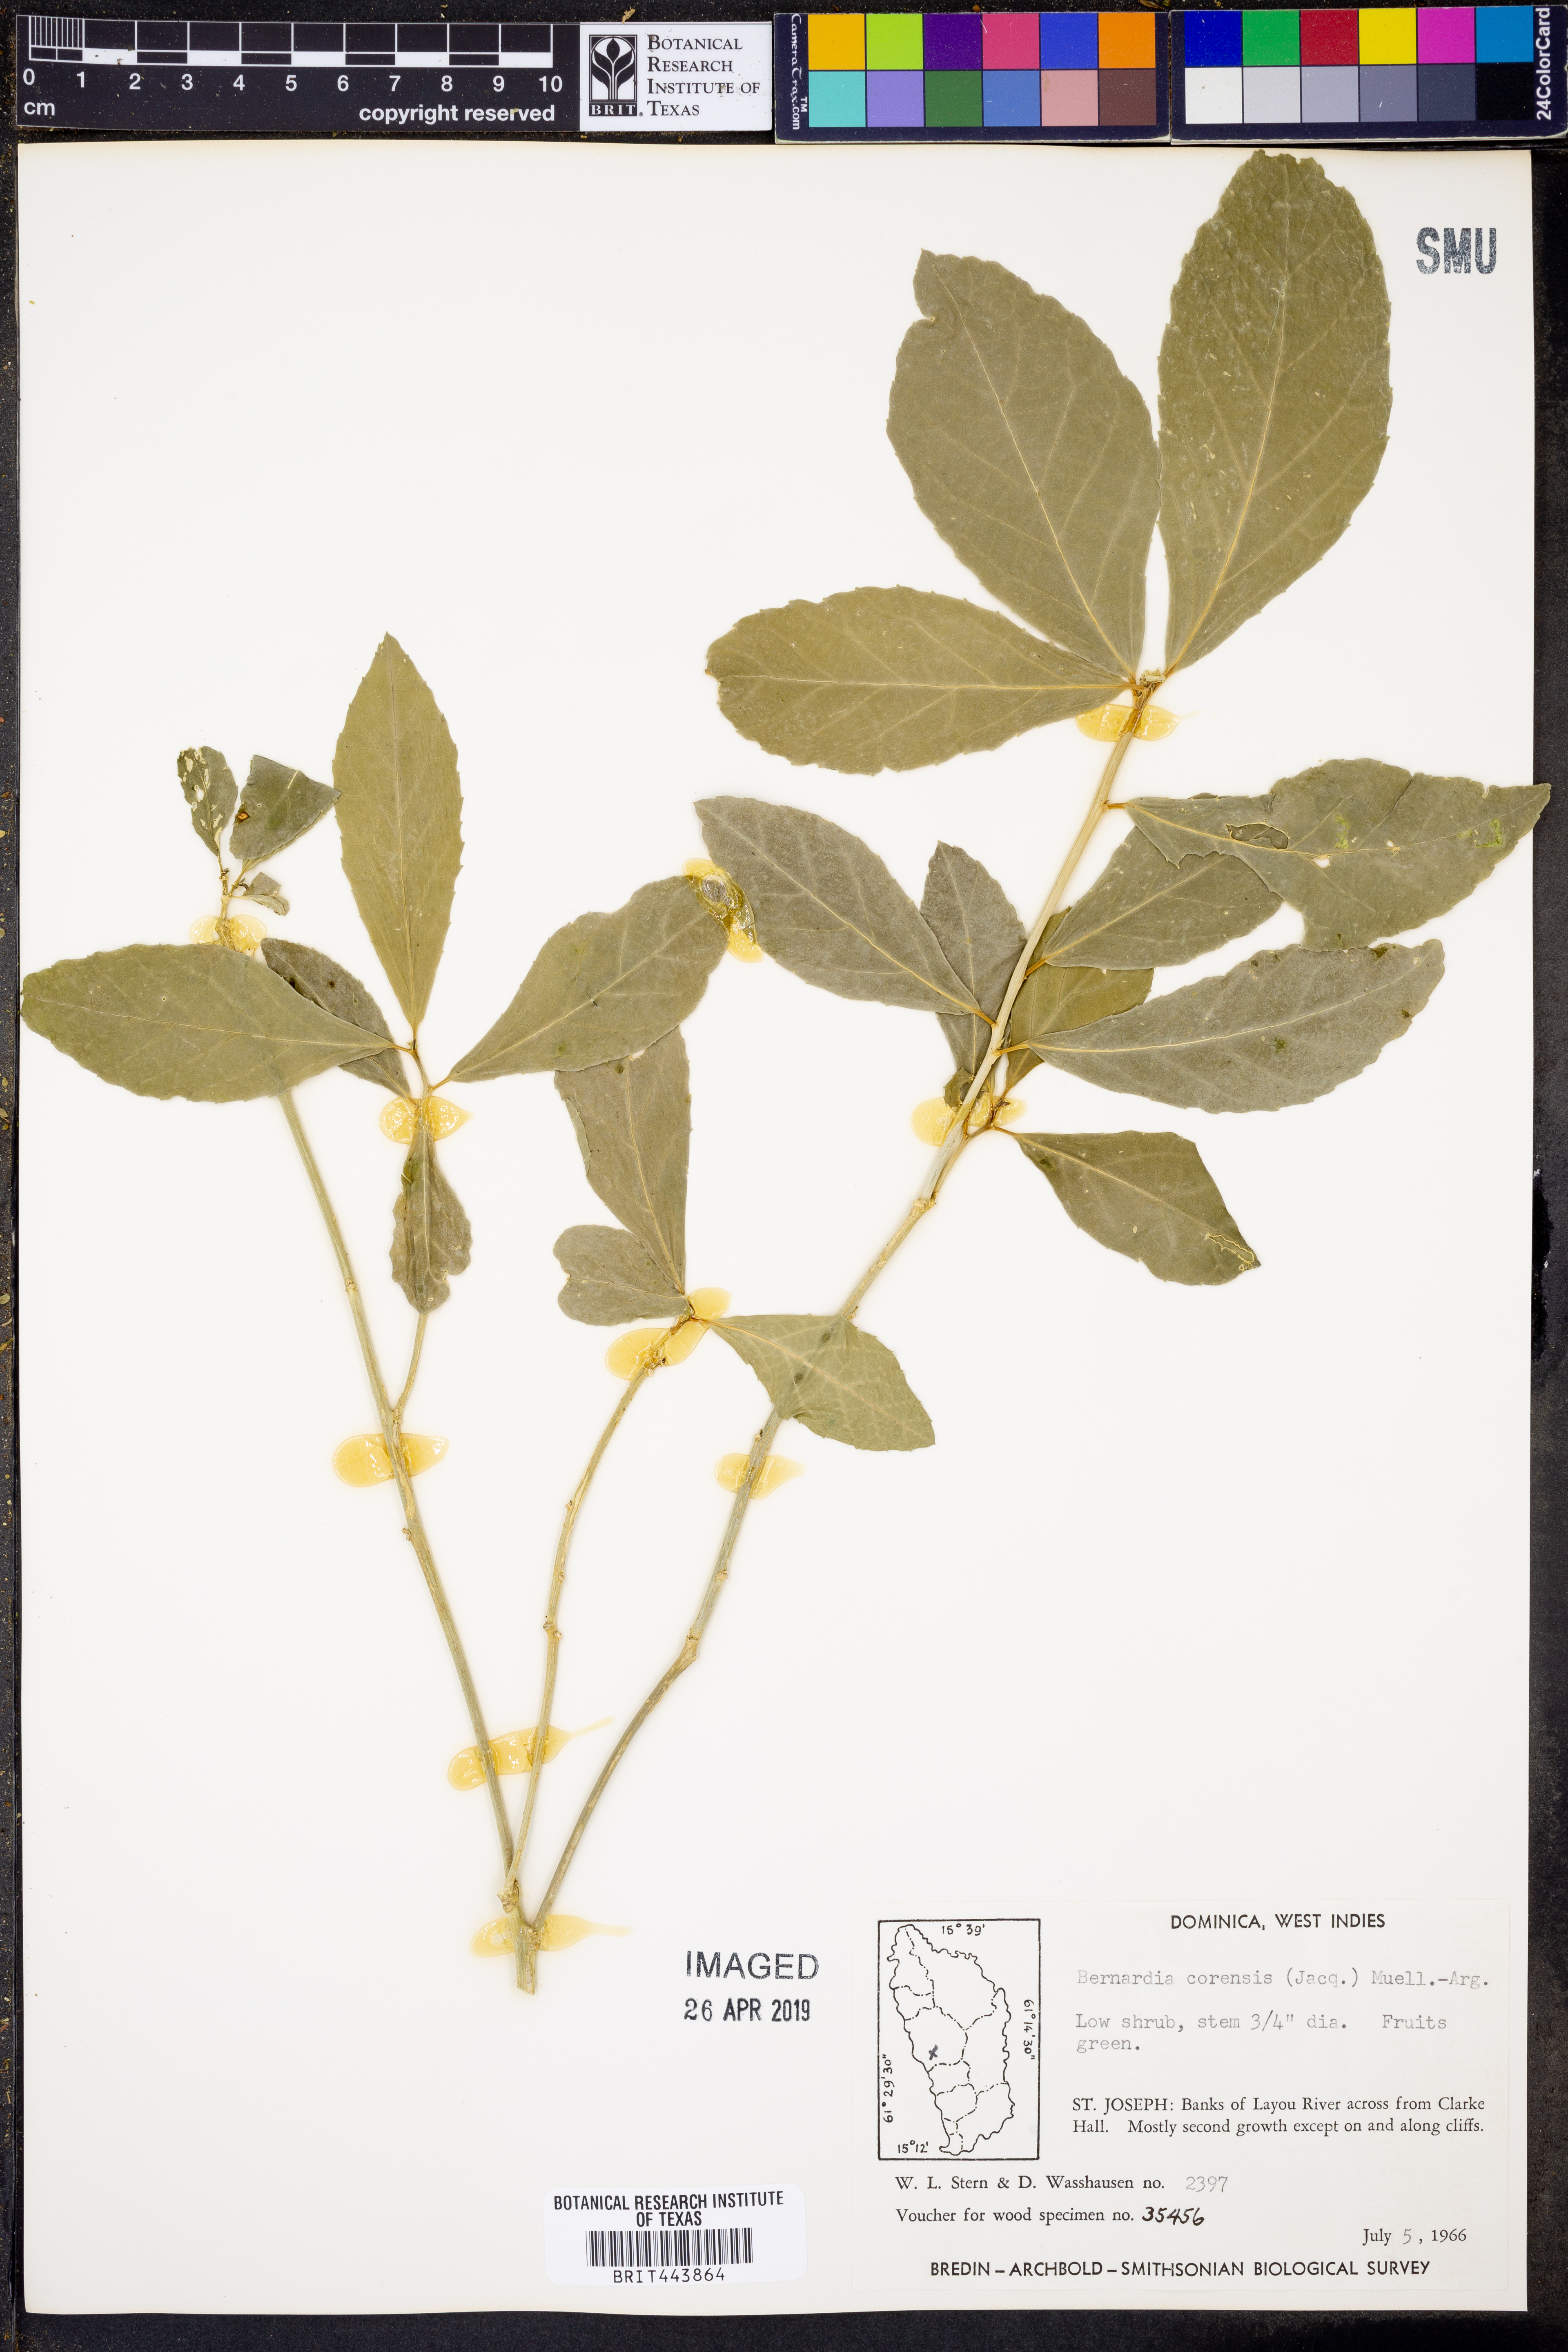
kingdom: Plantae
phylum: Tracheophyta
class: Magnoliopsida
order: Malpighiales
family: Euphorbiaceae
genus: Bernardia
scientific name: Bernardia corensis
